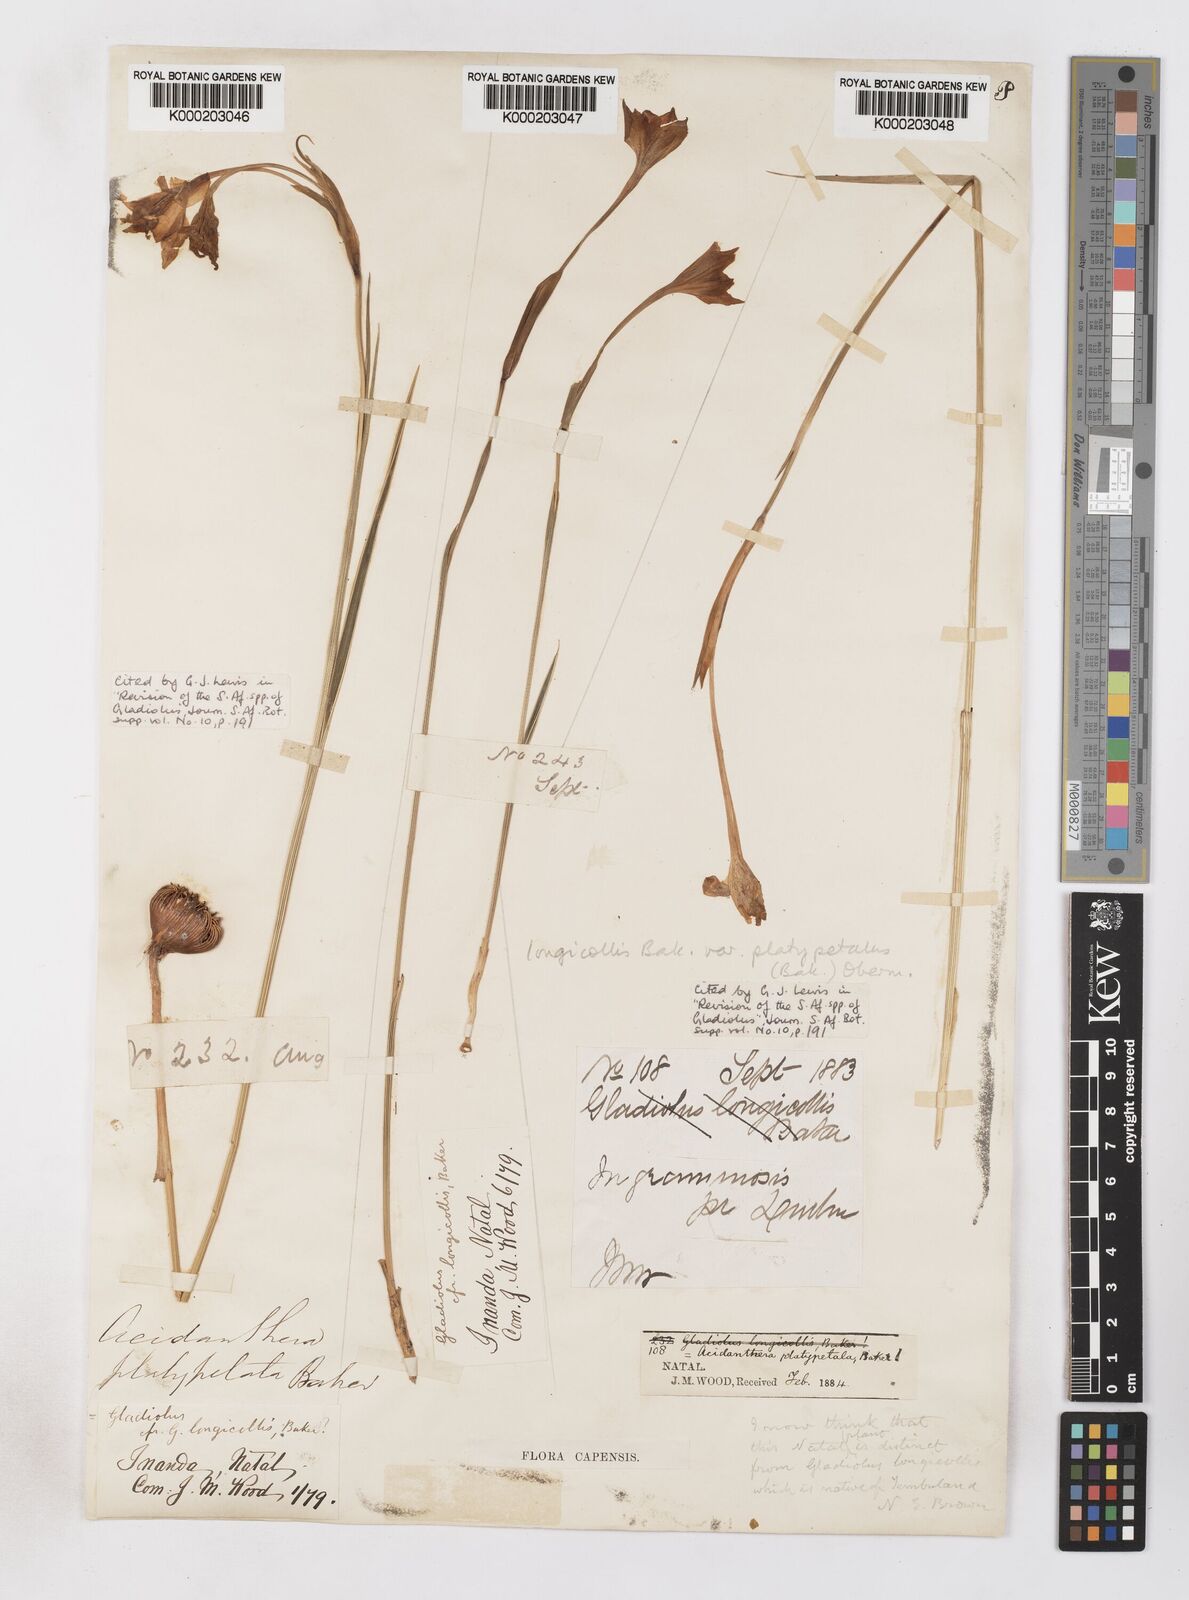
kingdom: Plantae
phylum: Tracheophyta
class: Liliopsida
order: Asparagales
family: Iridaceae
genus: Gladiolus
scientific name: Gladiolus longicollis
